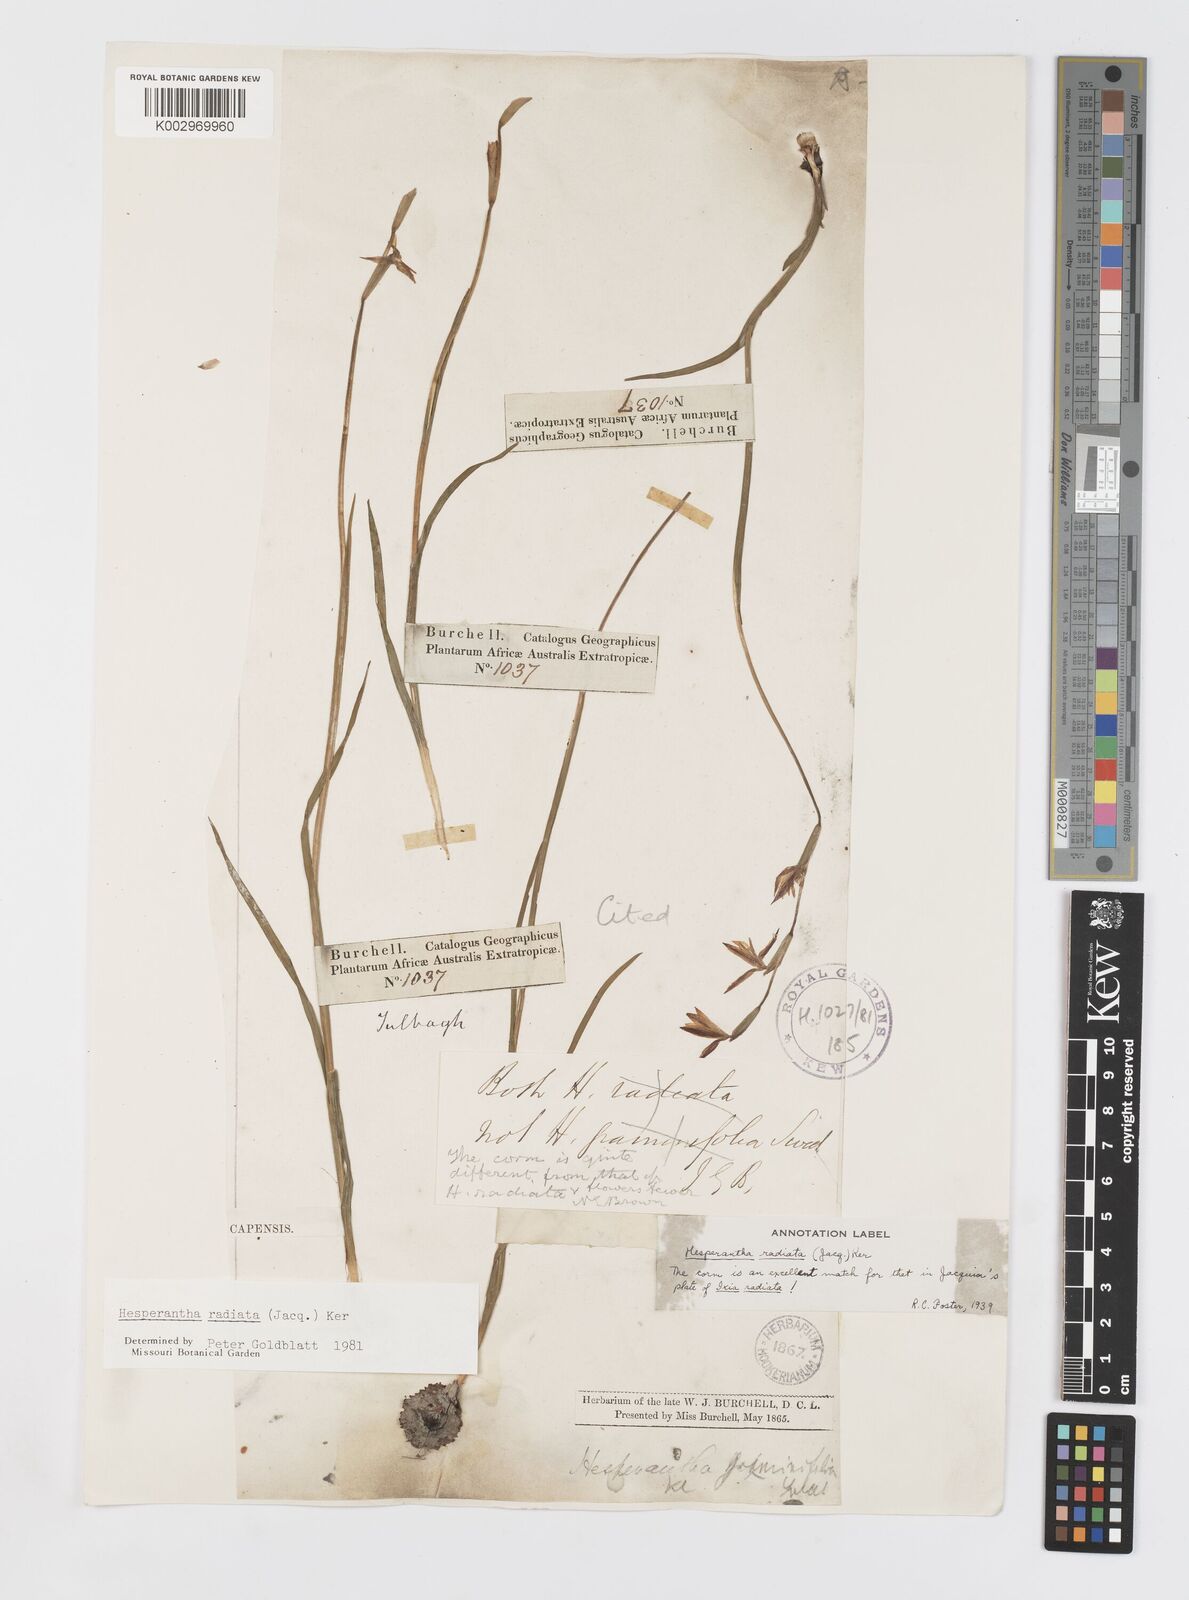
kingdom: Plantae
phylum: Tracheophyta
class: Liliopsida
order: Asparagales
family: Iridaceae
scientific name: Iridaceae
